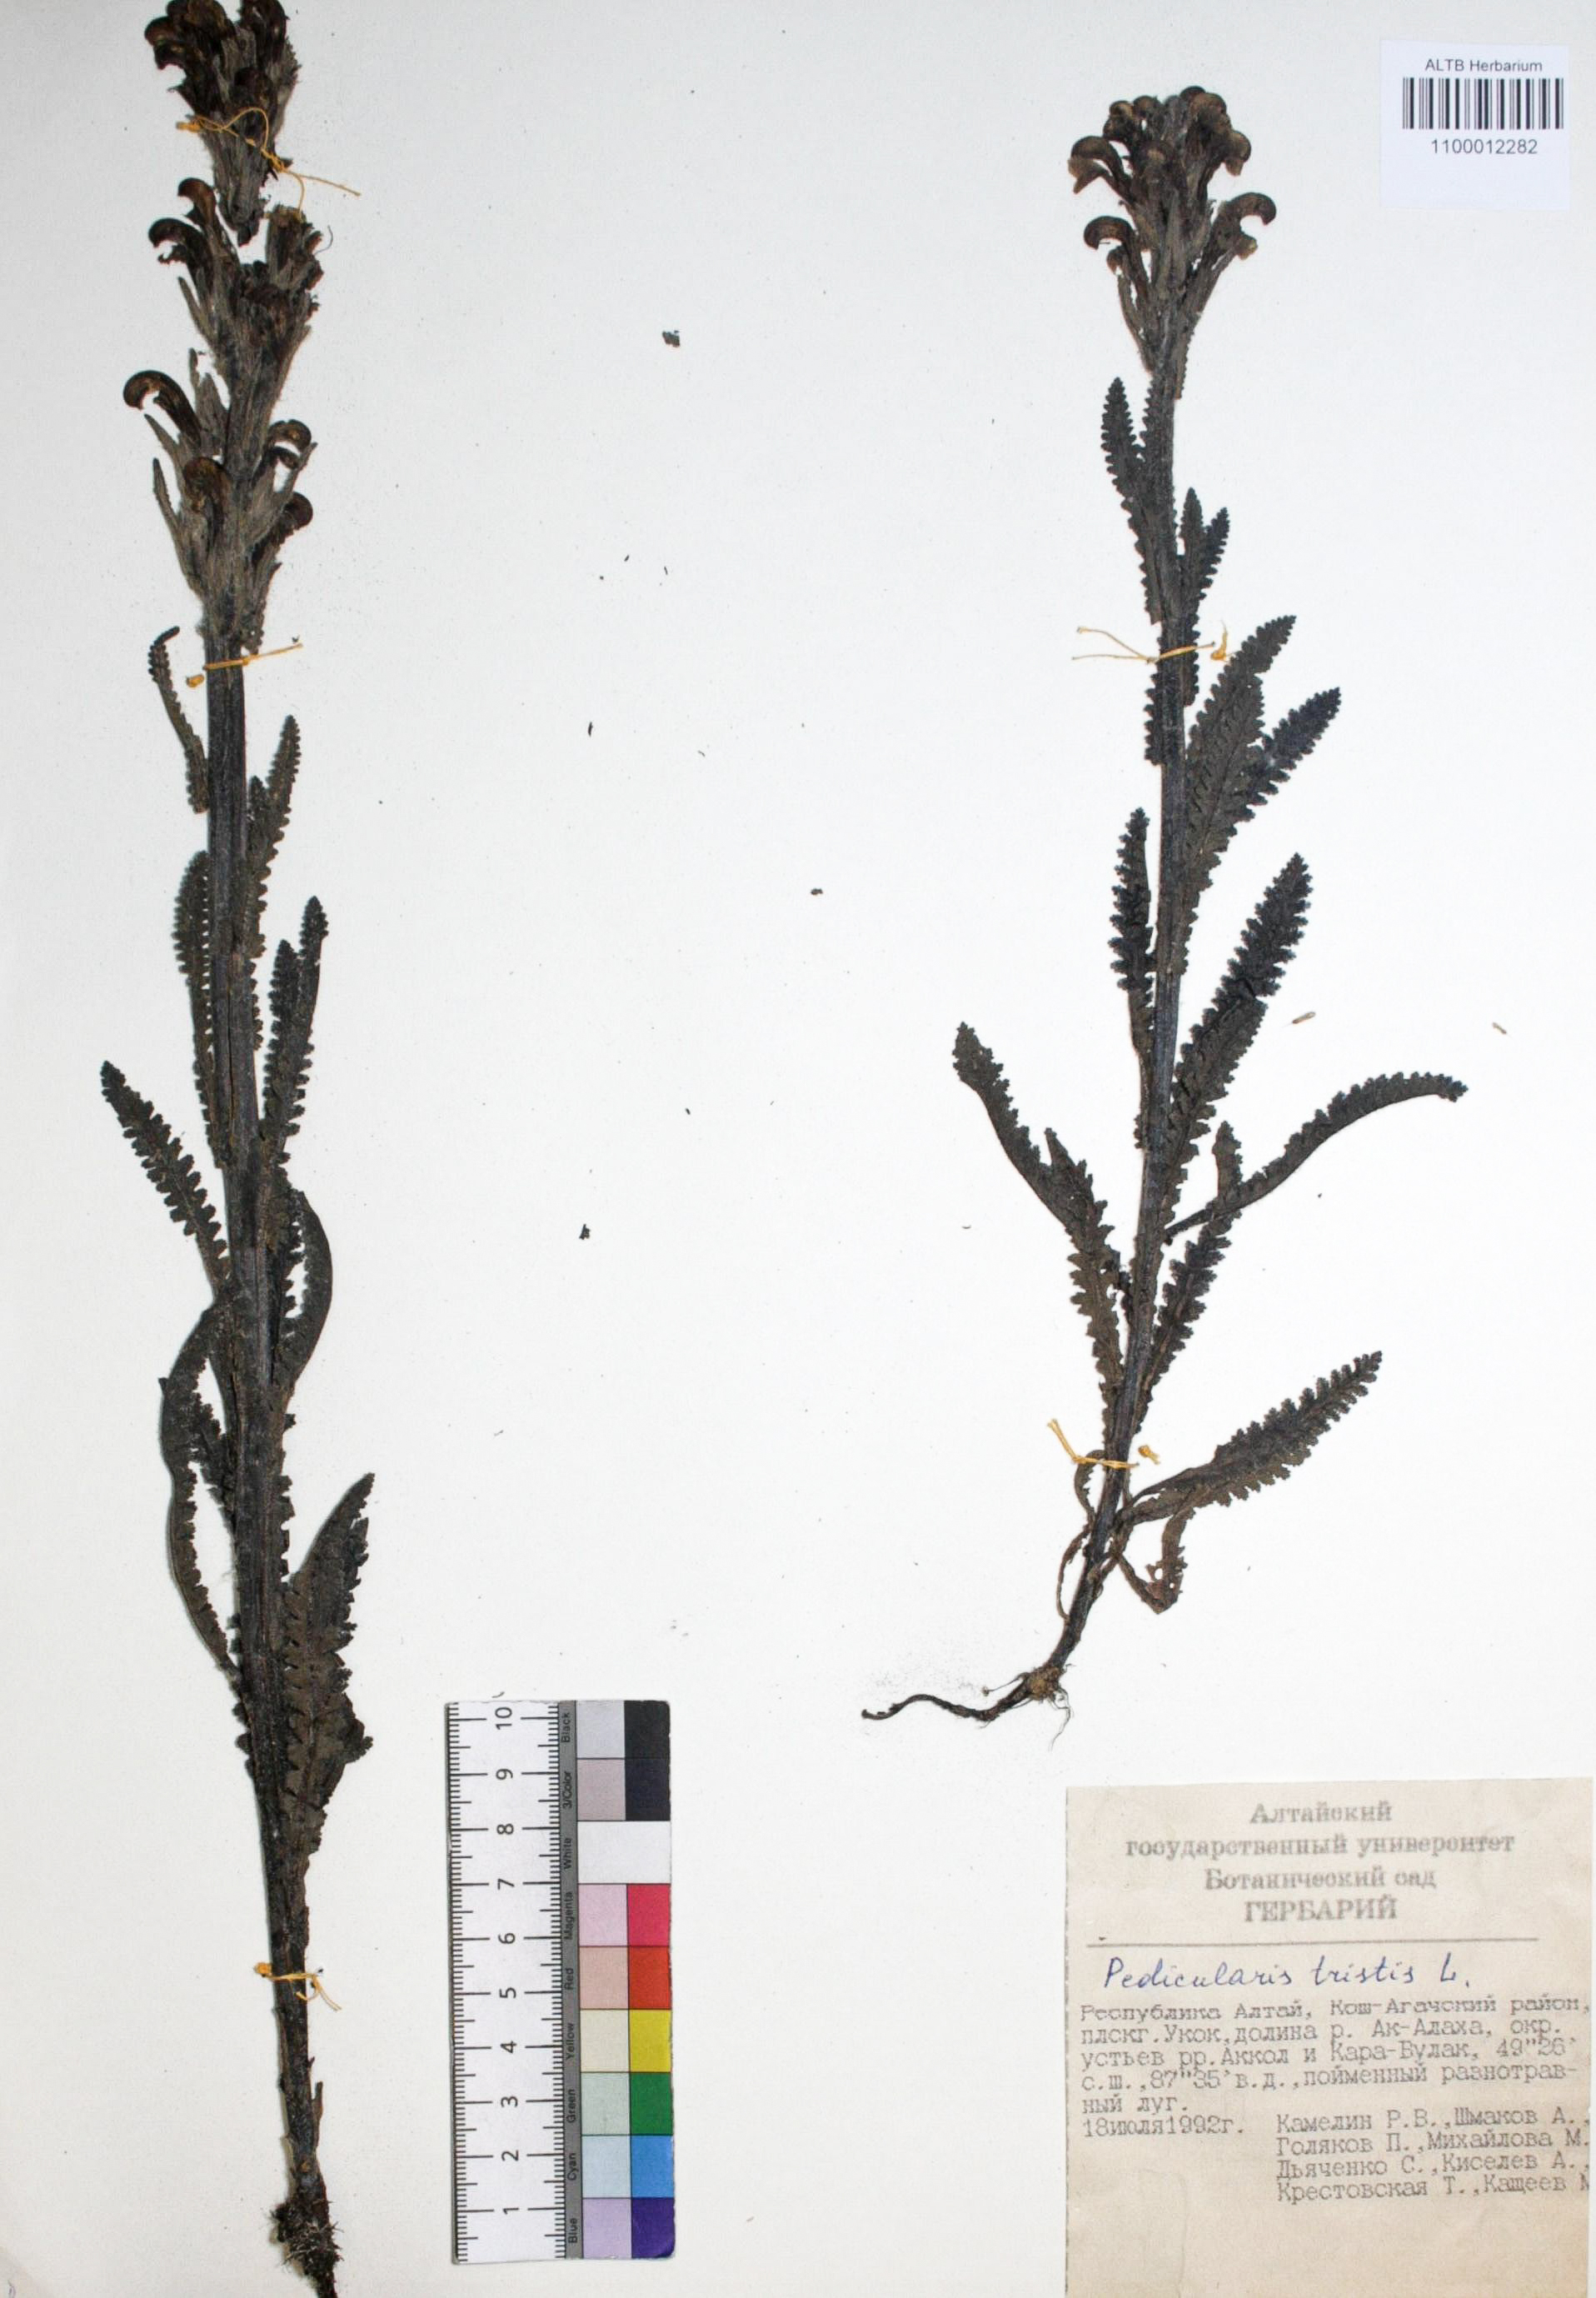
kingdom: Plantae
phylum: Tracheophyta
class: Magnoliopsida
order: Lamiales
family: Orobanchaceae
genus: Pedicularis
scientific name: Pedicularis tristis
